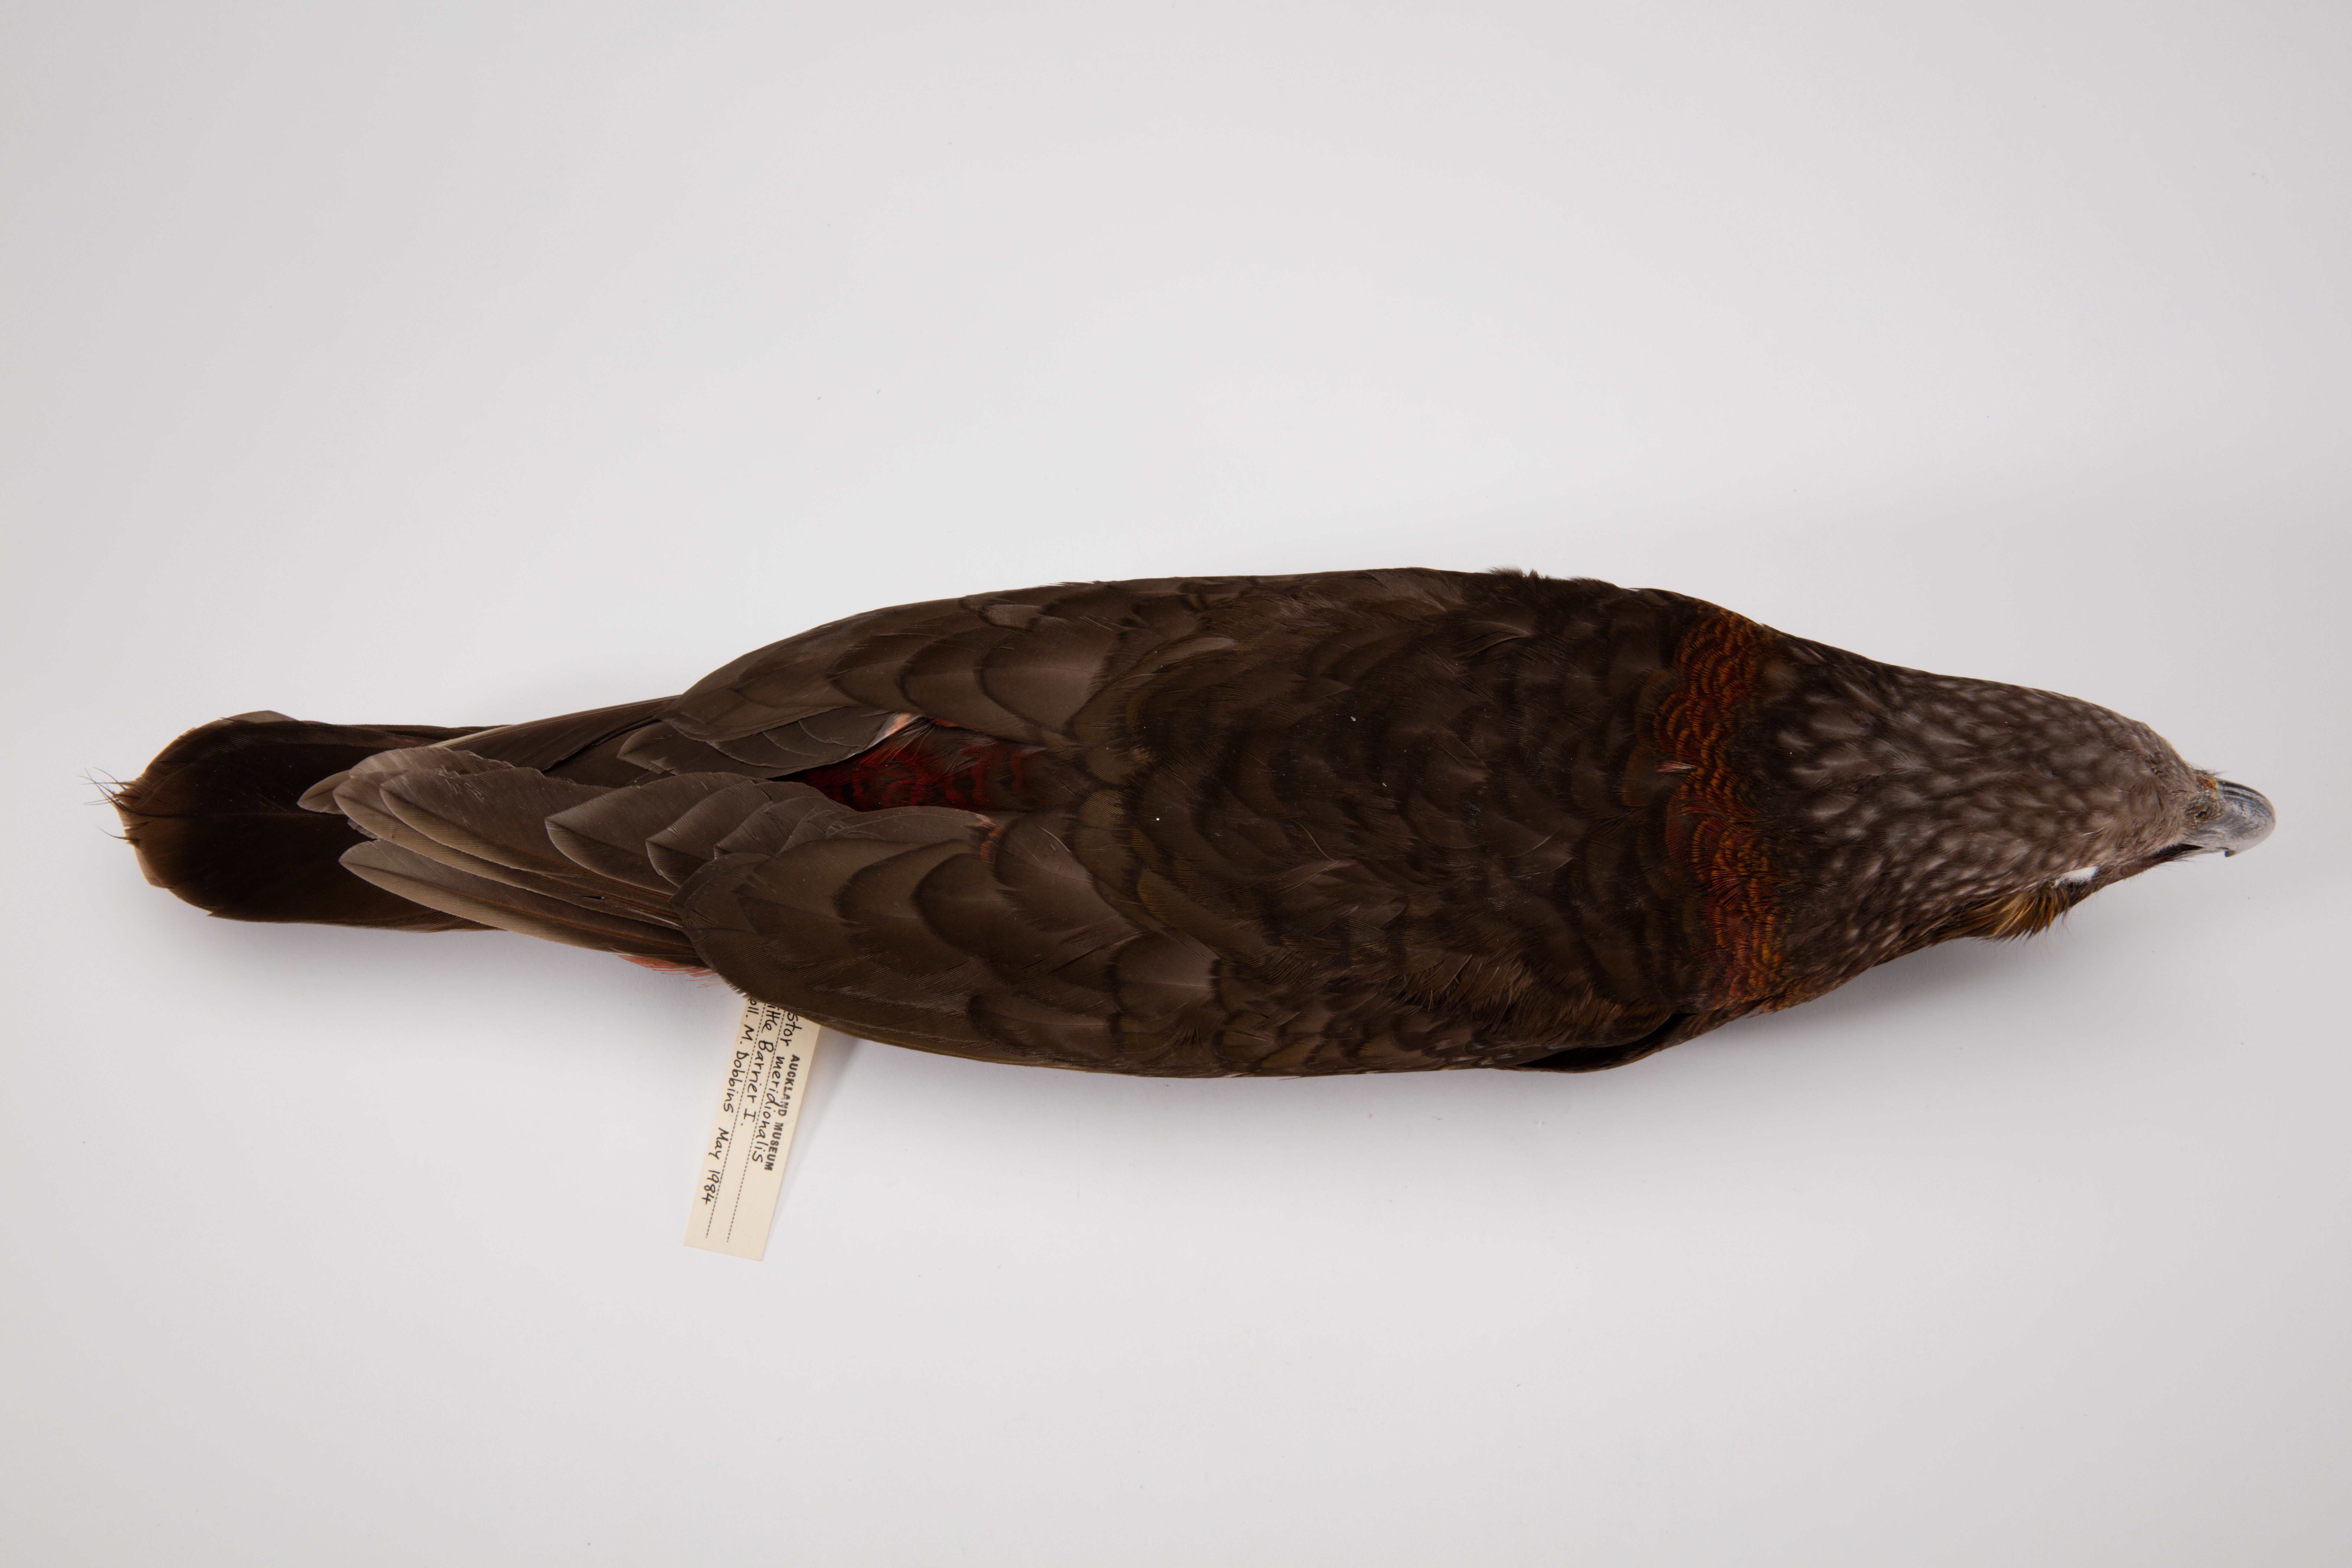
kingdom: Animalia
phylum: Chordata
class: Aves
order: Psittaciformes
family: Psittacidae
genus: Nestor
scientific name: Nestor meridionalis
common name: New zealand kaka
